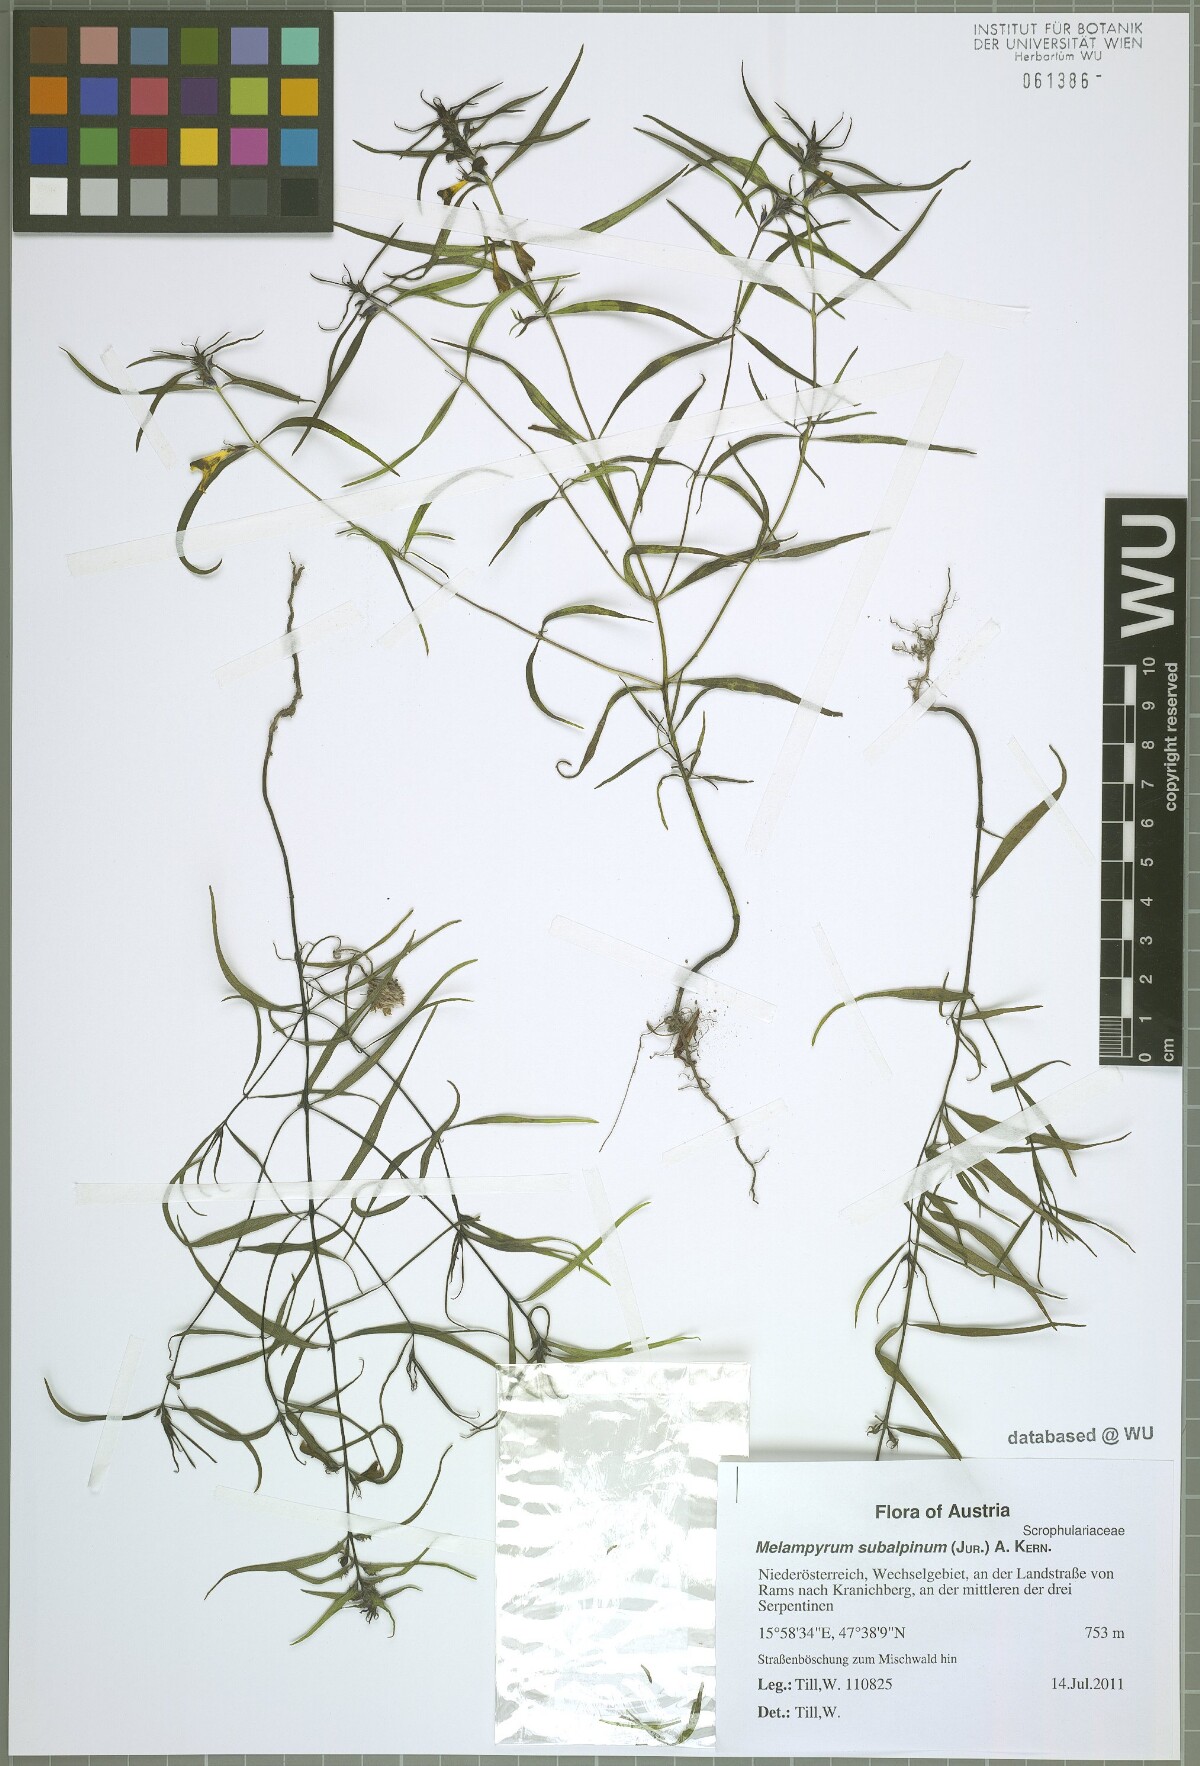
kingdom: Plantae
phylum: Tracheophyta
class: Magnoliopsida
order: Lamiales
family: Orobanchaceae
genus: Melampyrum
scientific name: Melampyrum subalpinum
